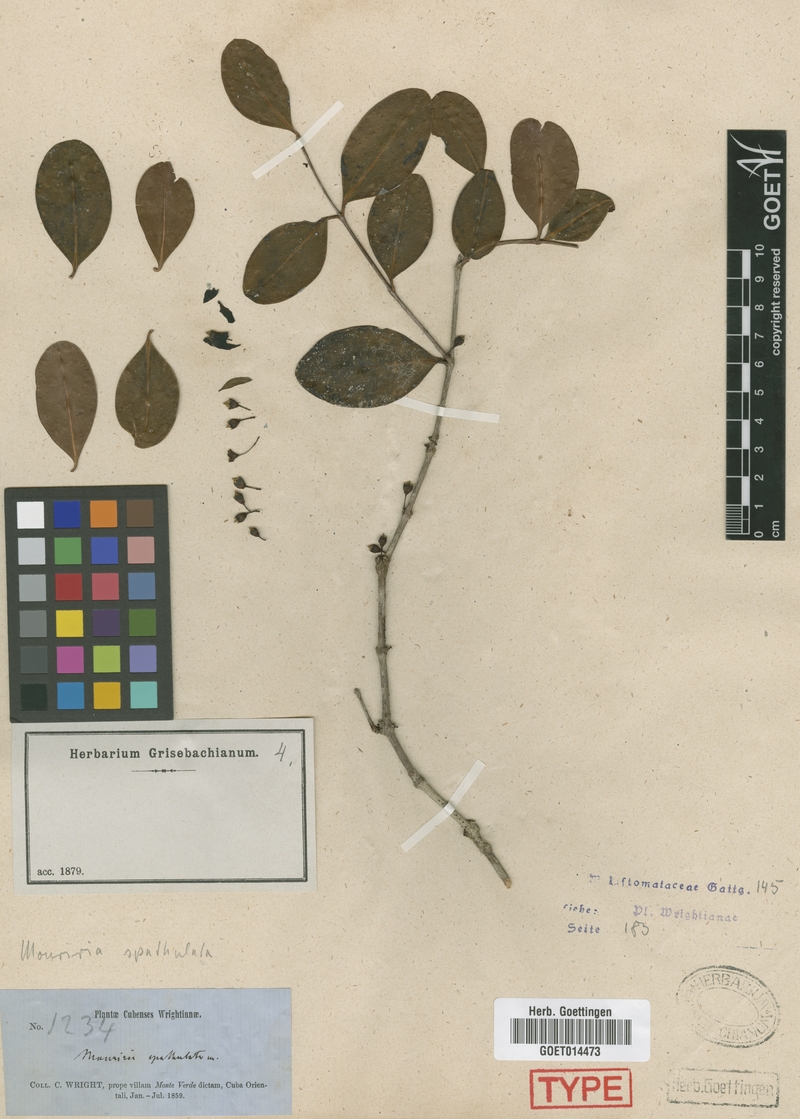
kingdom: Plantae
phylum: Tracheophyta
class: Magnoliopsida
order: Myrtales
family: Melastomataceae
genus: Mouriri
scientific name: Mouriri spathulata
